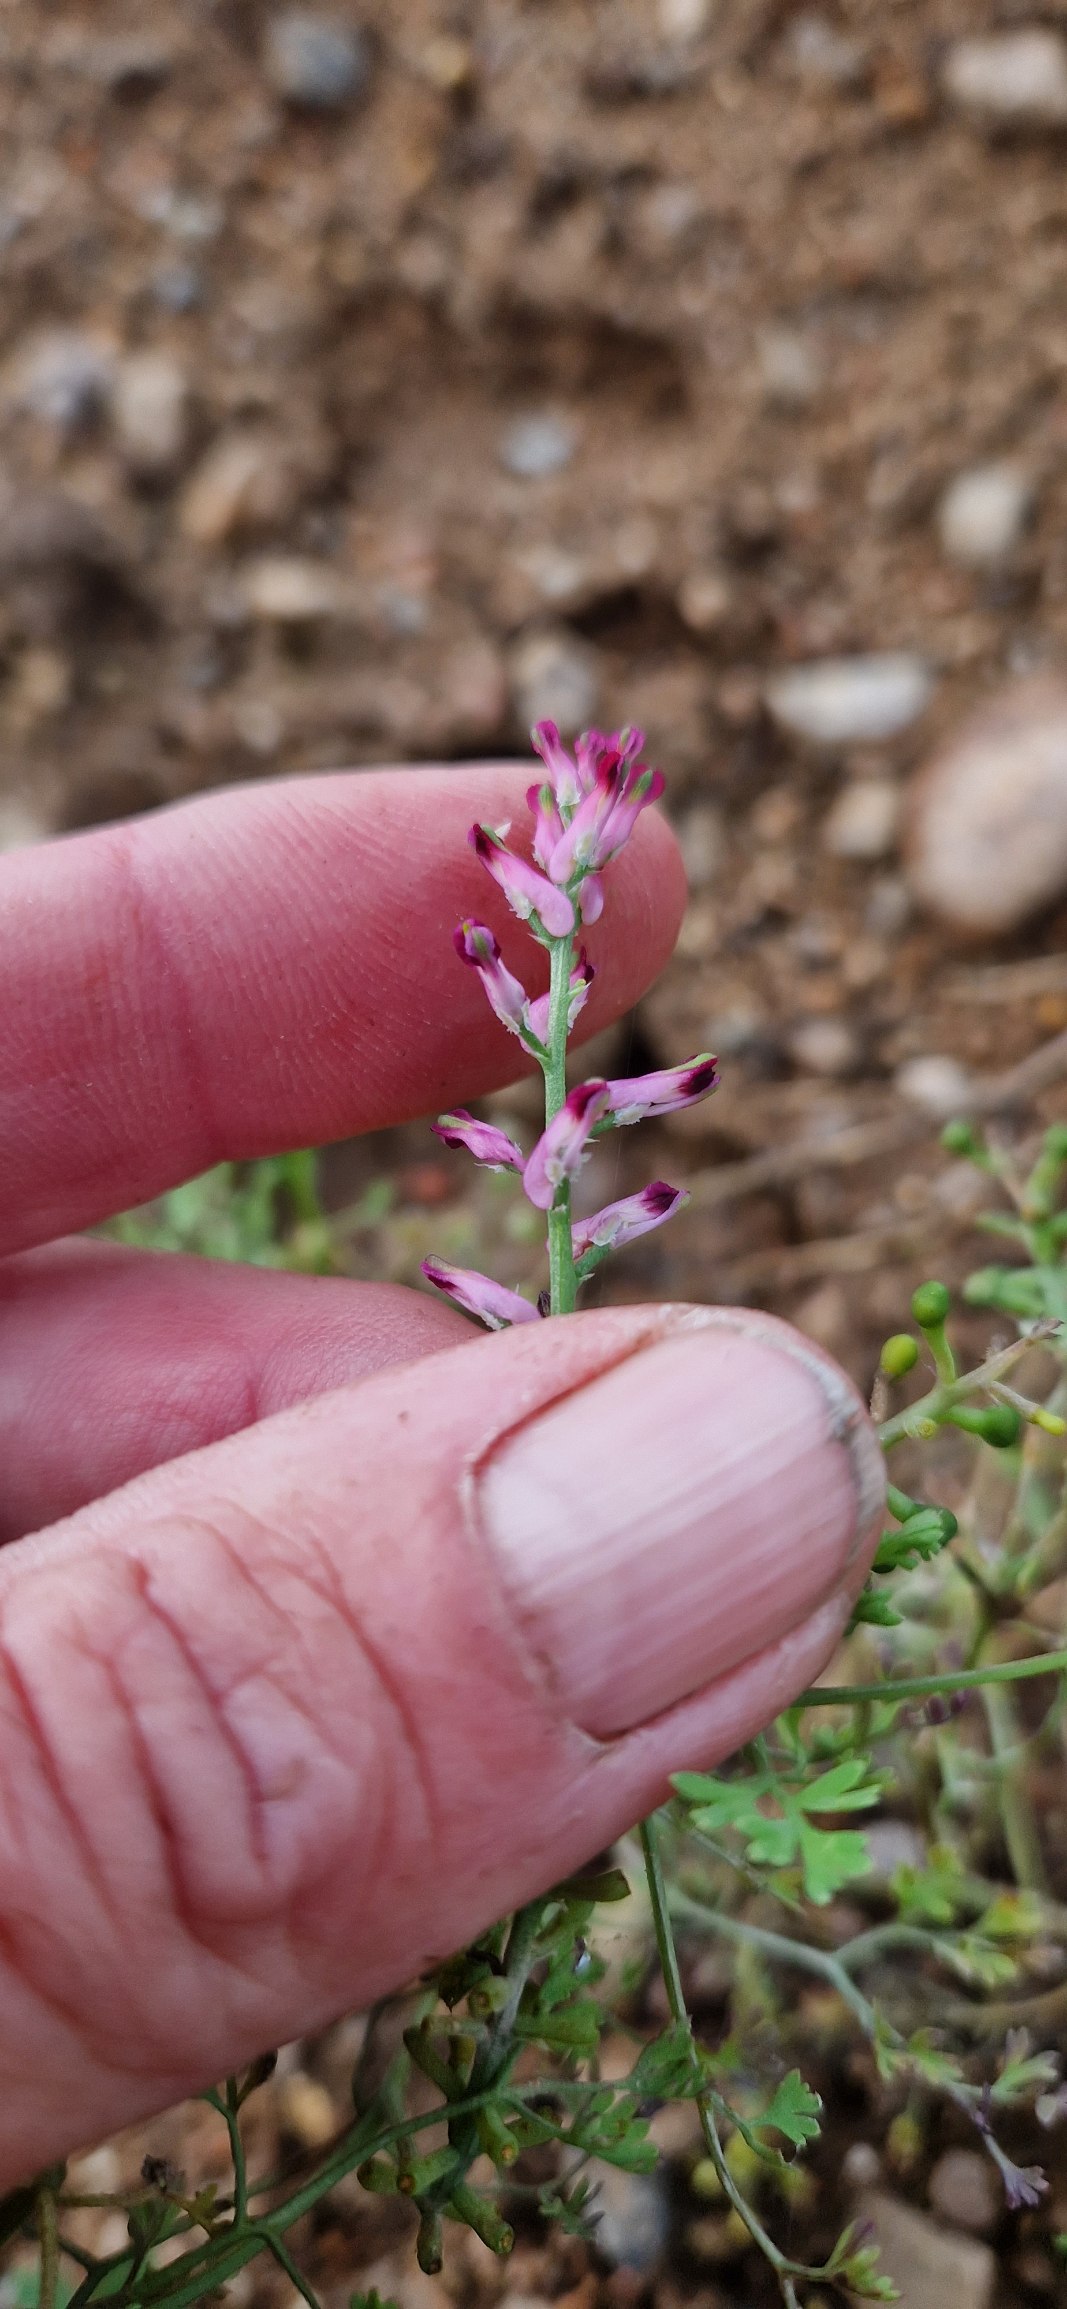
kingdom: Plantae
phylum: Tracheophyta
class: Magnoliopsida
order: Ranunculales
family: Papaveraceae
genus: Fumaria
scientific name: Fumaria officinalis
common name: Læge-jordrøg
